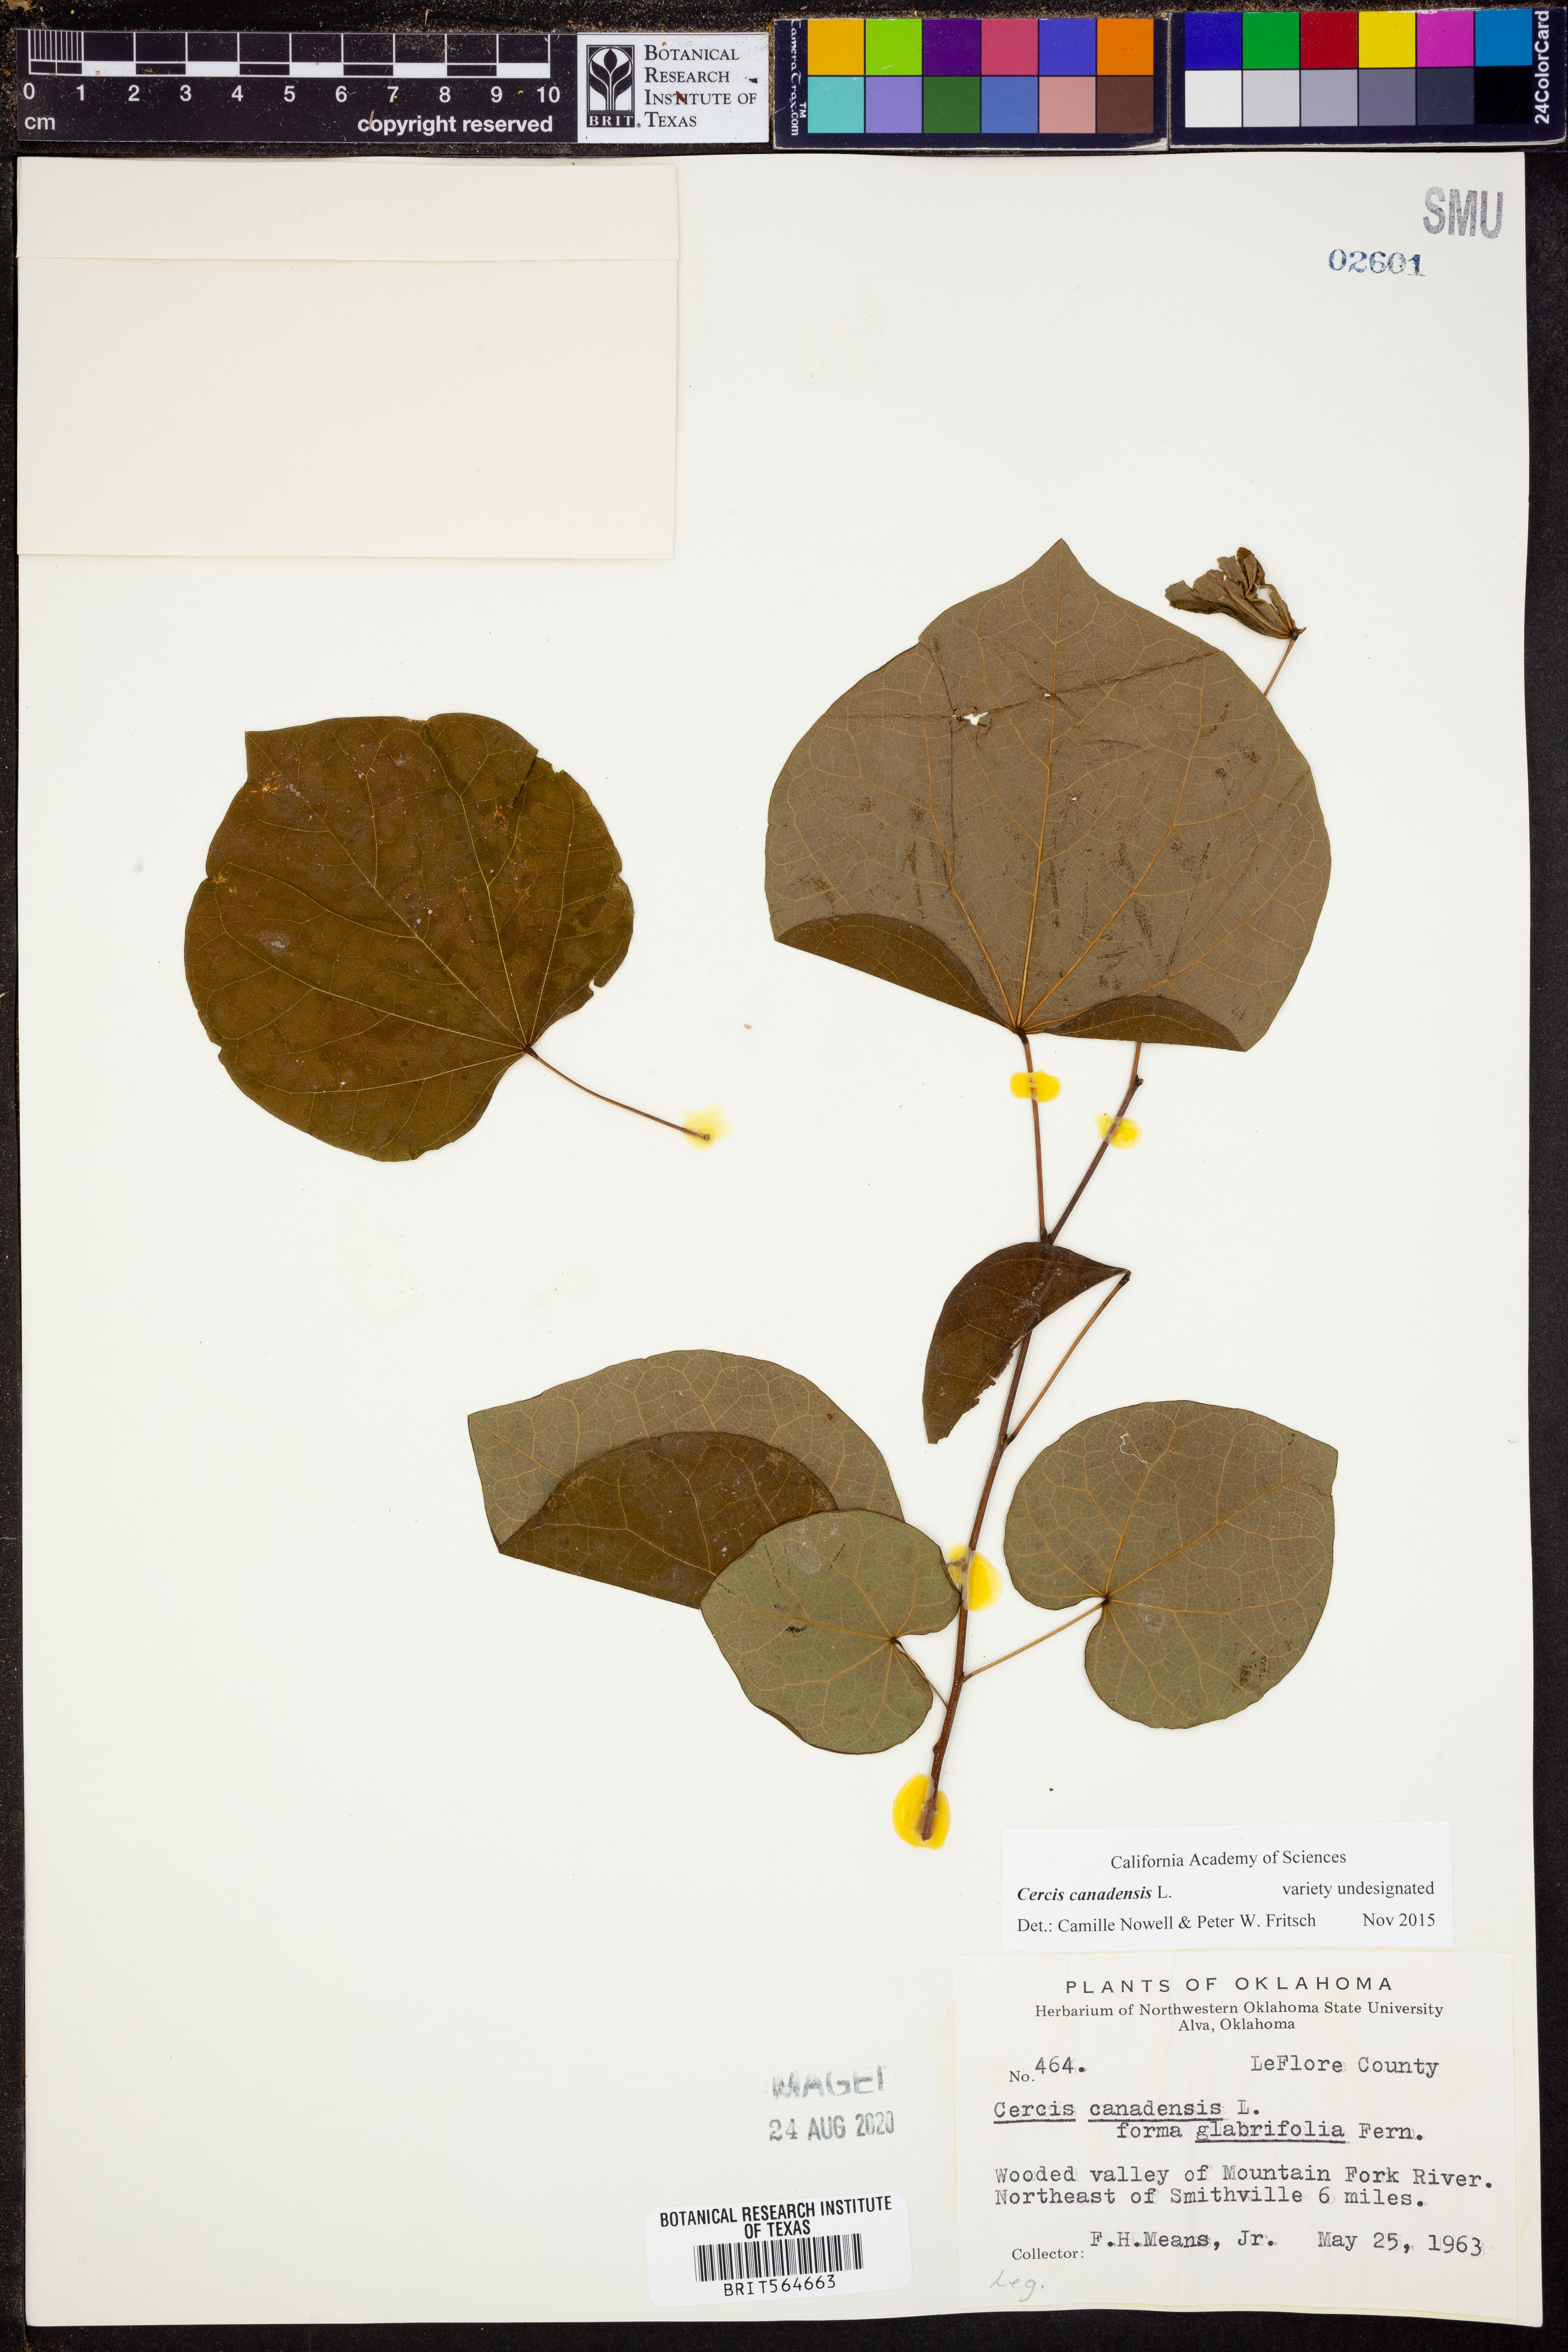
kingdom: Plantae
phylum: Tracheophyta
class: Magnoliopsida
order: Fabales
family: Fabaceae
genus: Cercis
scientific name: Cercis canadensis
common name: Eastern redbud
